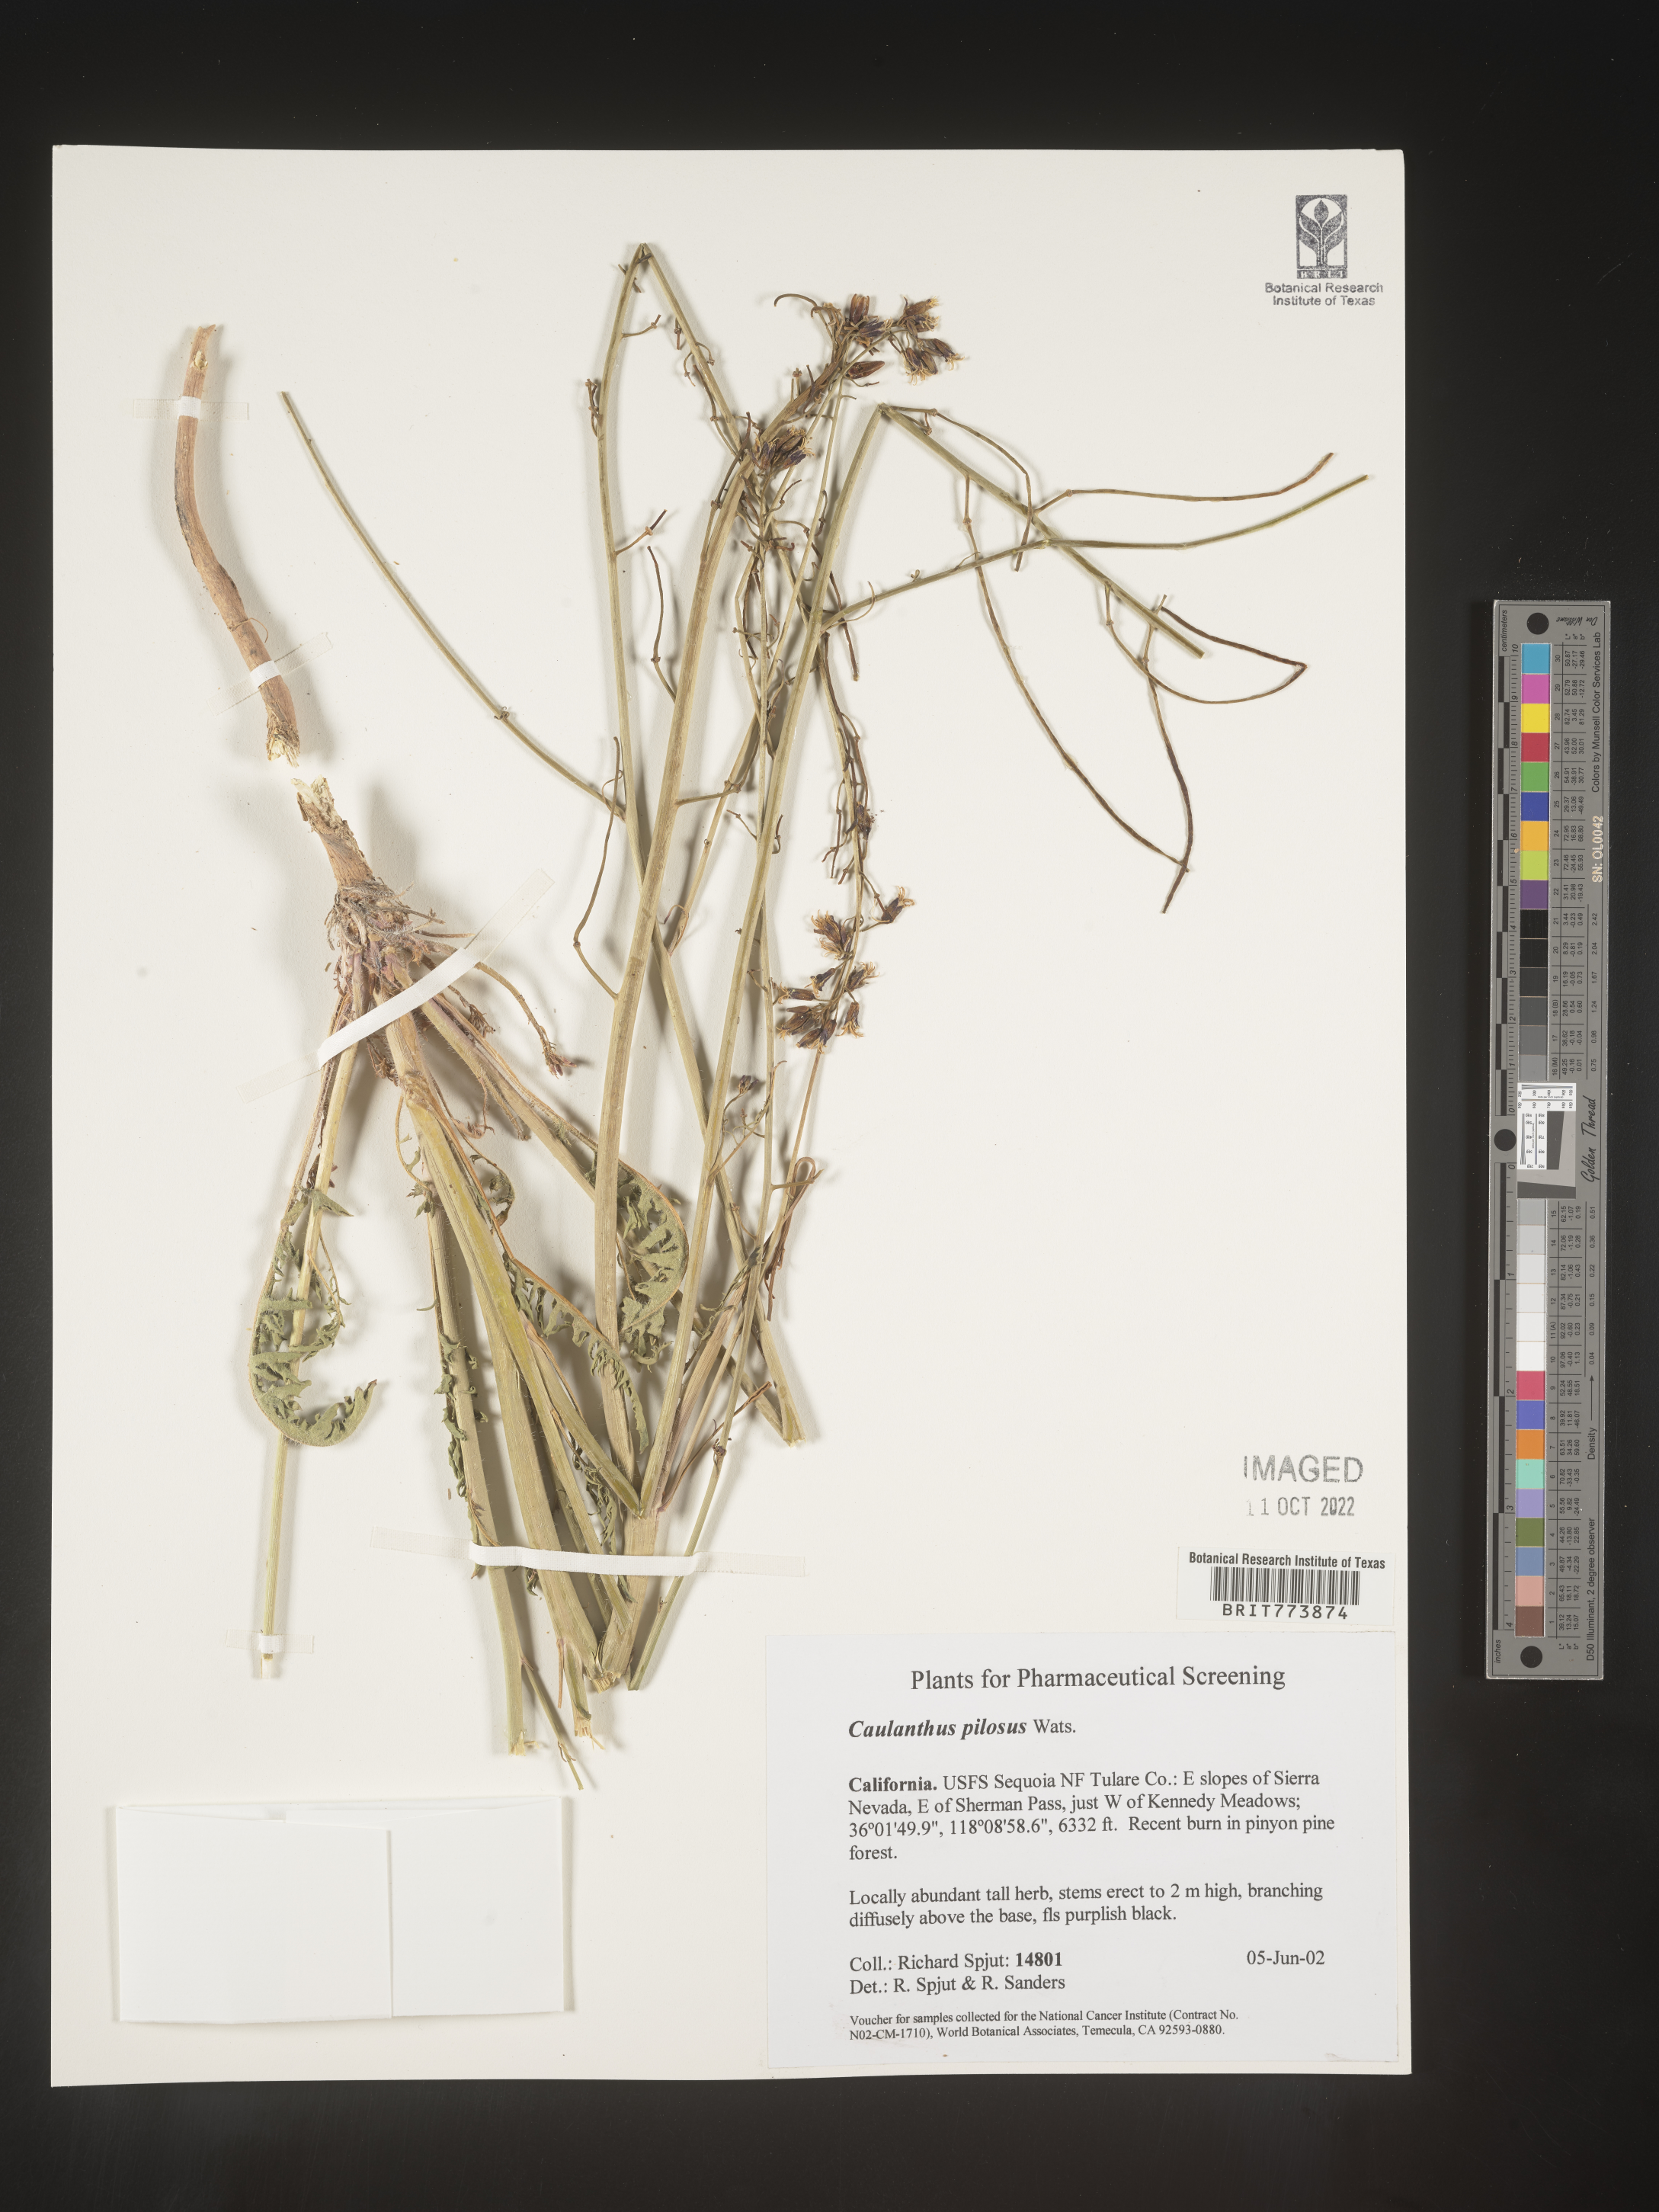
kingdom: Plantae
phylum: Tracheophyta
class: Magnoliopsida
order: Brassicales
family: Brassicaceae
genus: Streptanthus
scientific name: Streptanthus
